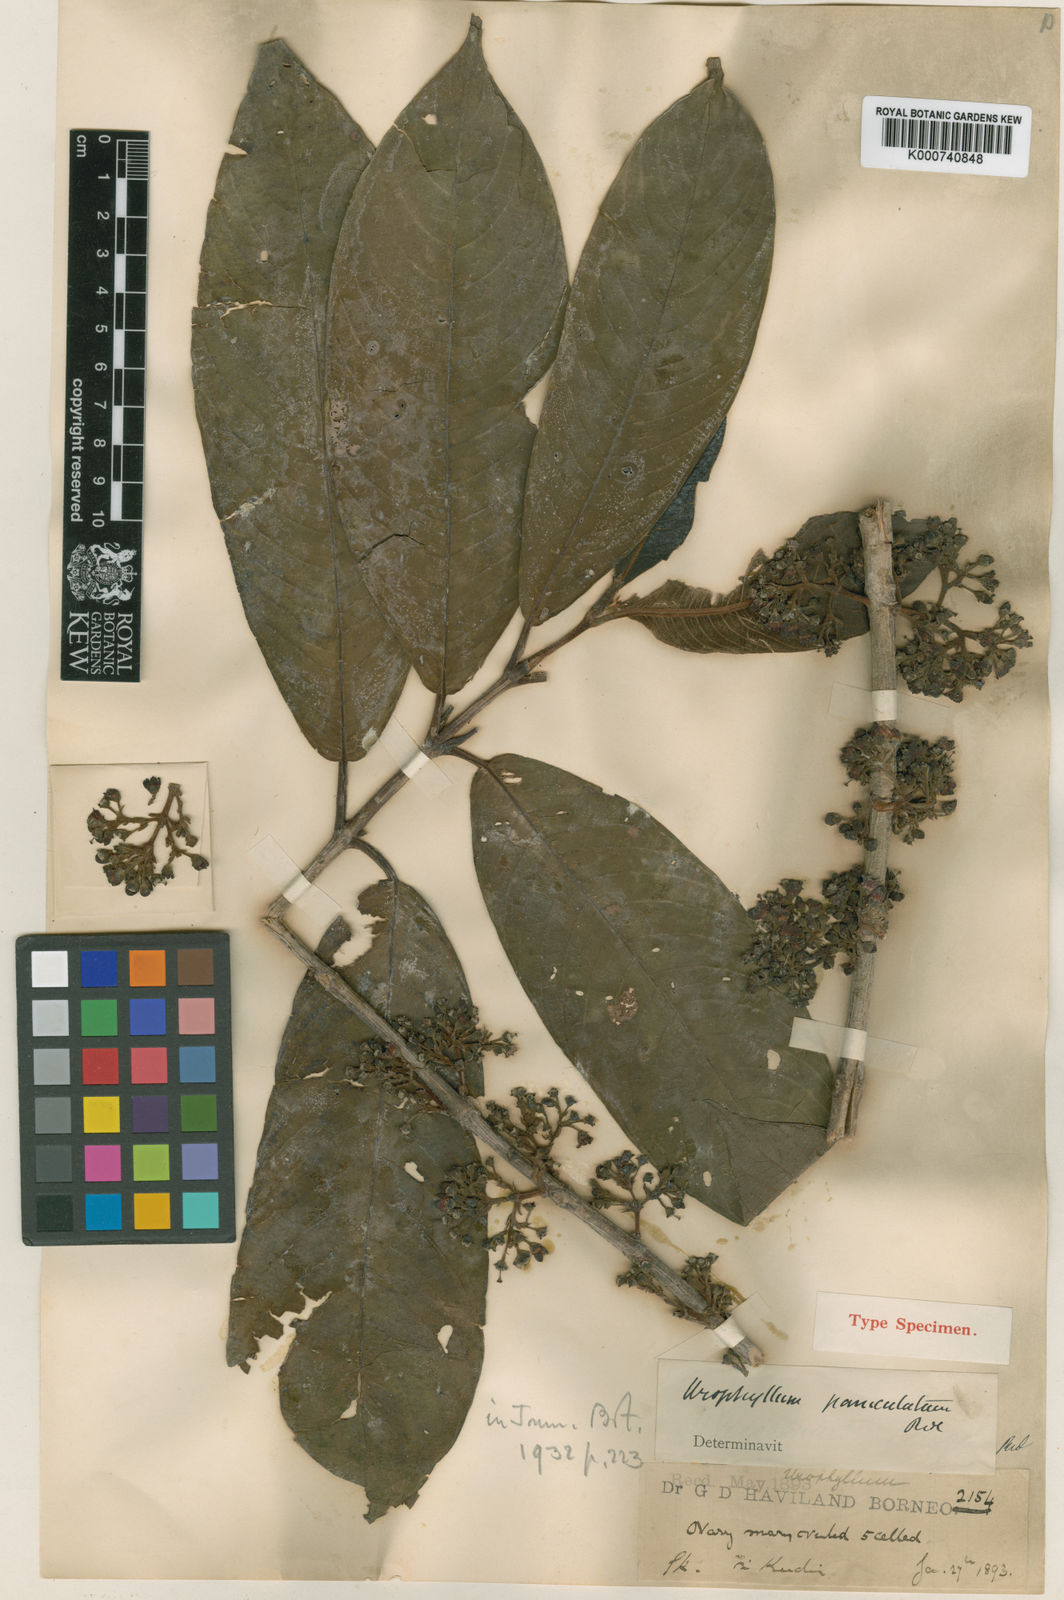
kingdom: Plantae
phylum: Tracheophyta
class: Magnoliopsida
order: Gentianales
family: Rubiaceae
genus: Urophyllum
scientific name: Urophyllum paniculatum
